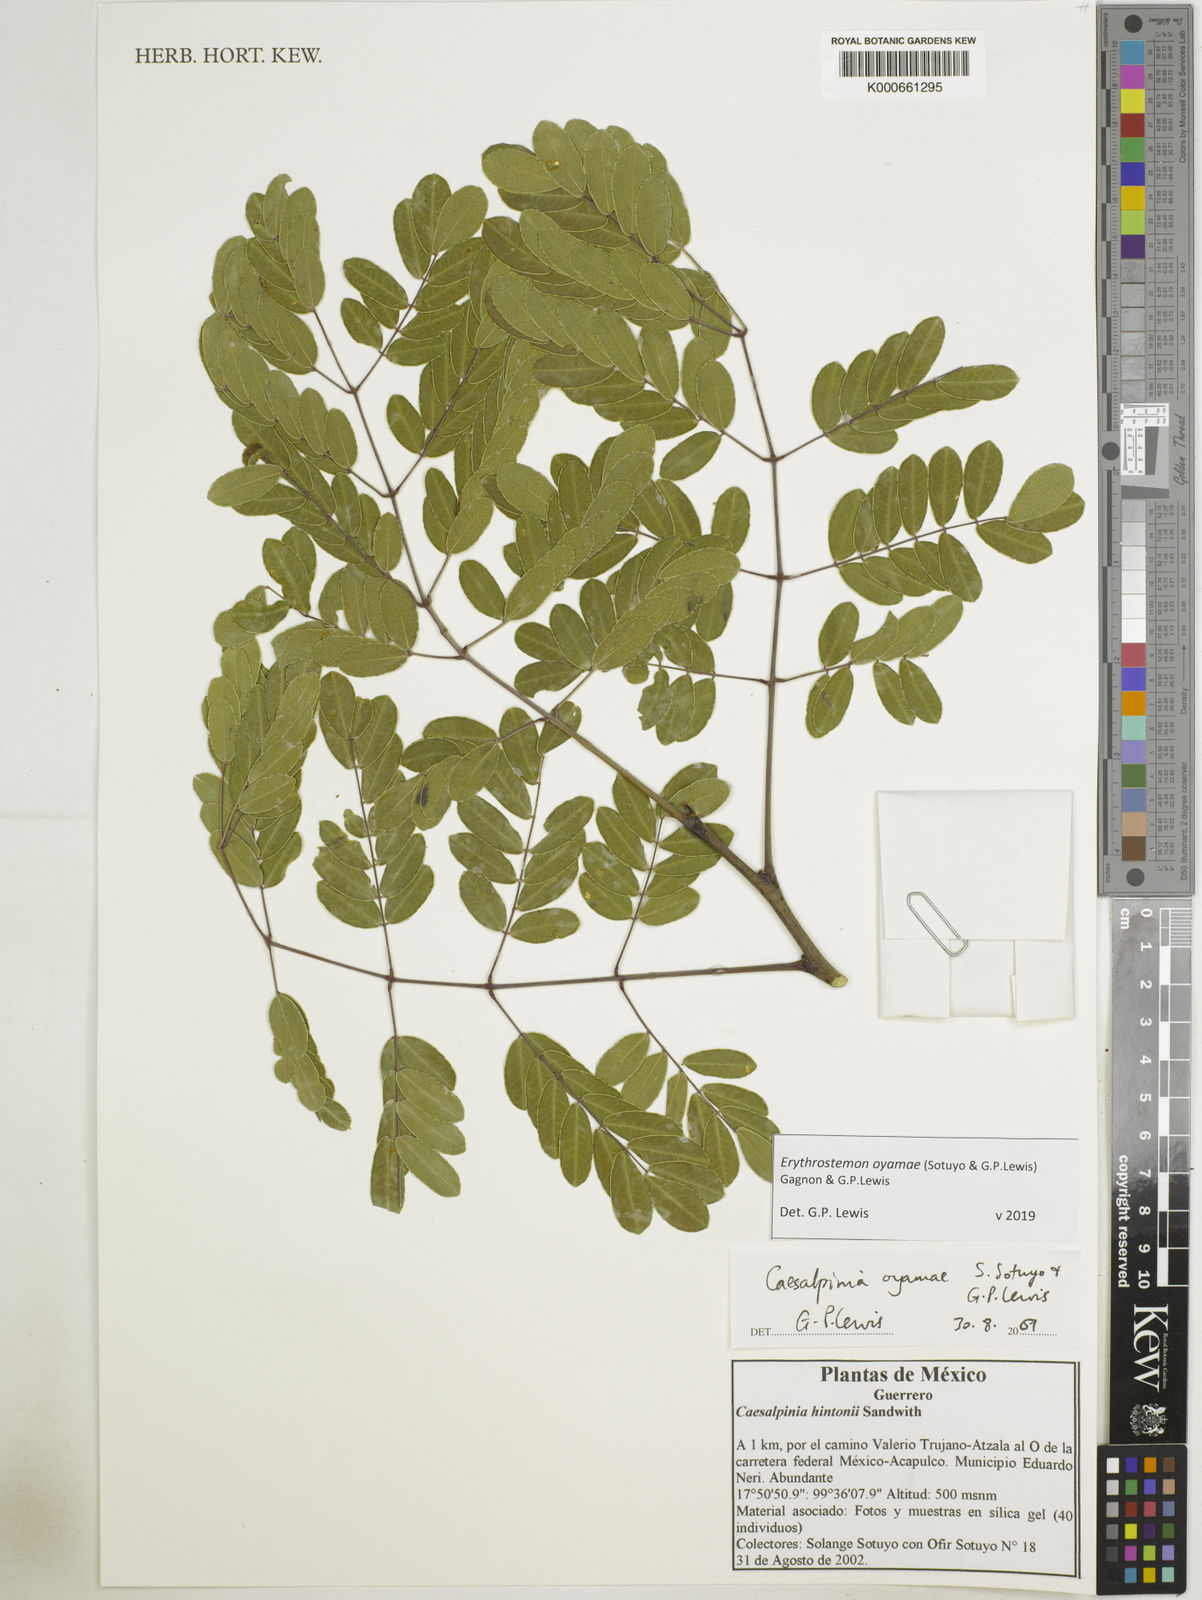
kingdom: Plantae
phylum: Tracheophyta
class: Magnoliopsida
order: Fabales
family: Fabaceae
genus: Erythrostemon
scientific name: Erythrostemon oyamae
